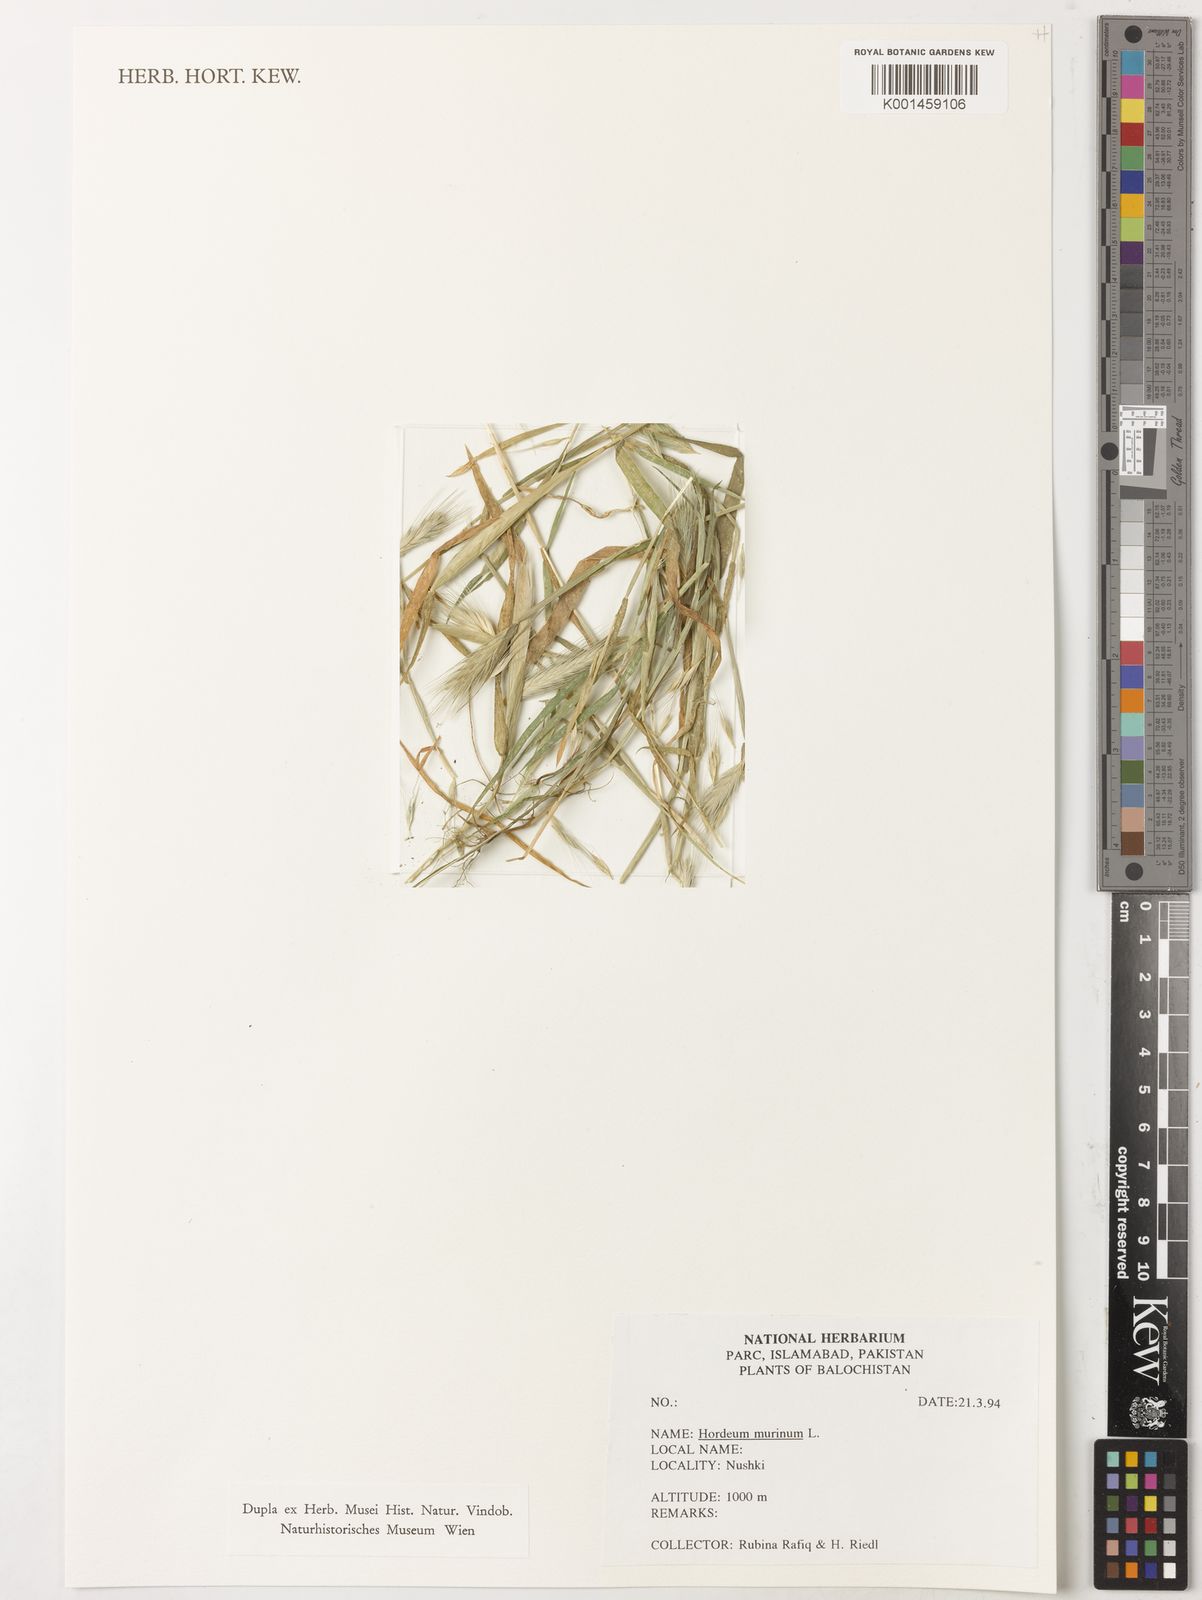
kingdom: Plantae
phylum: Tracheophyta
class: Liliopsida
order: Poales
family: Poaceae
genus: Hordeum
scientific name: Hordeum murinum
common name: Wall barley
